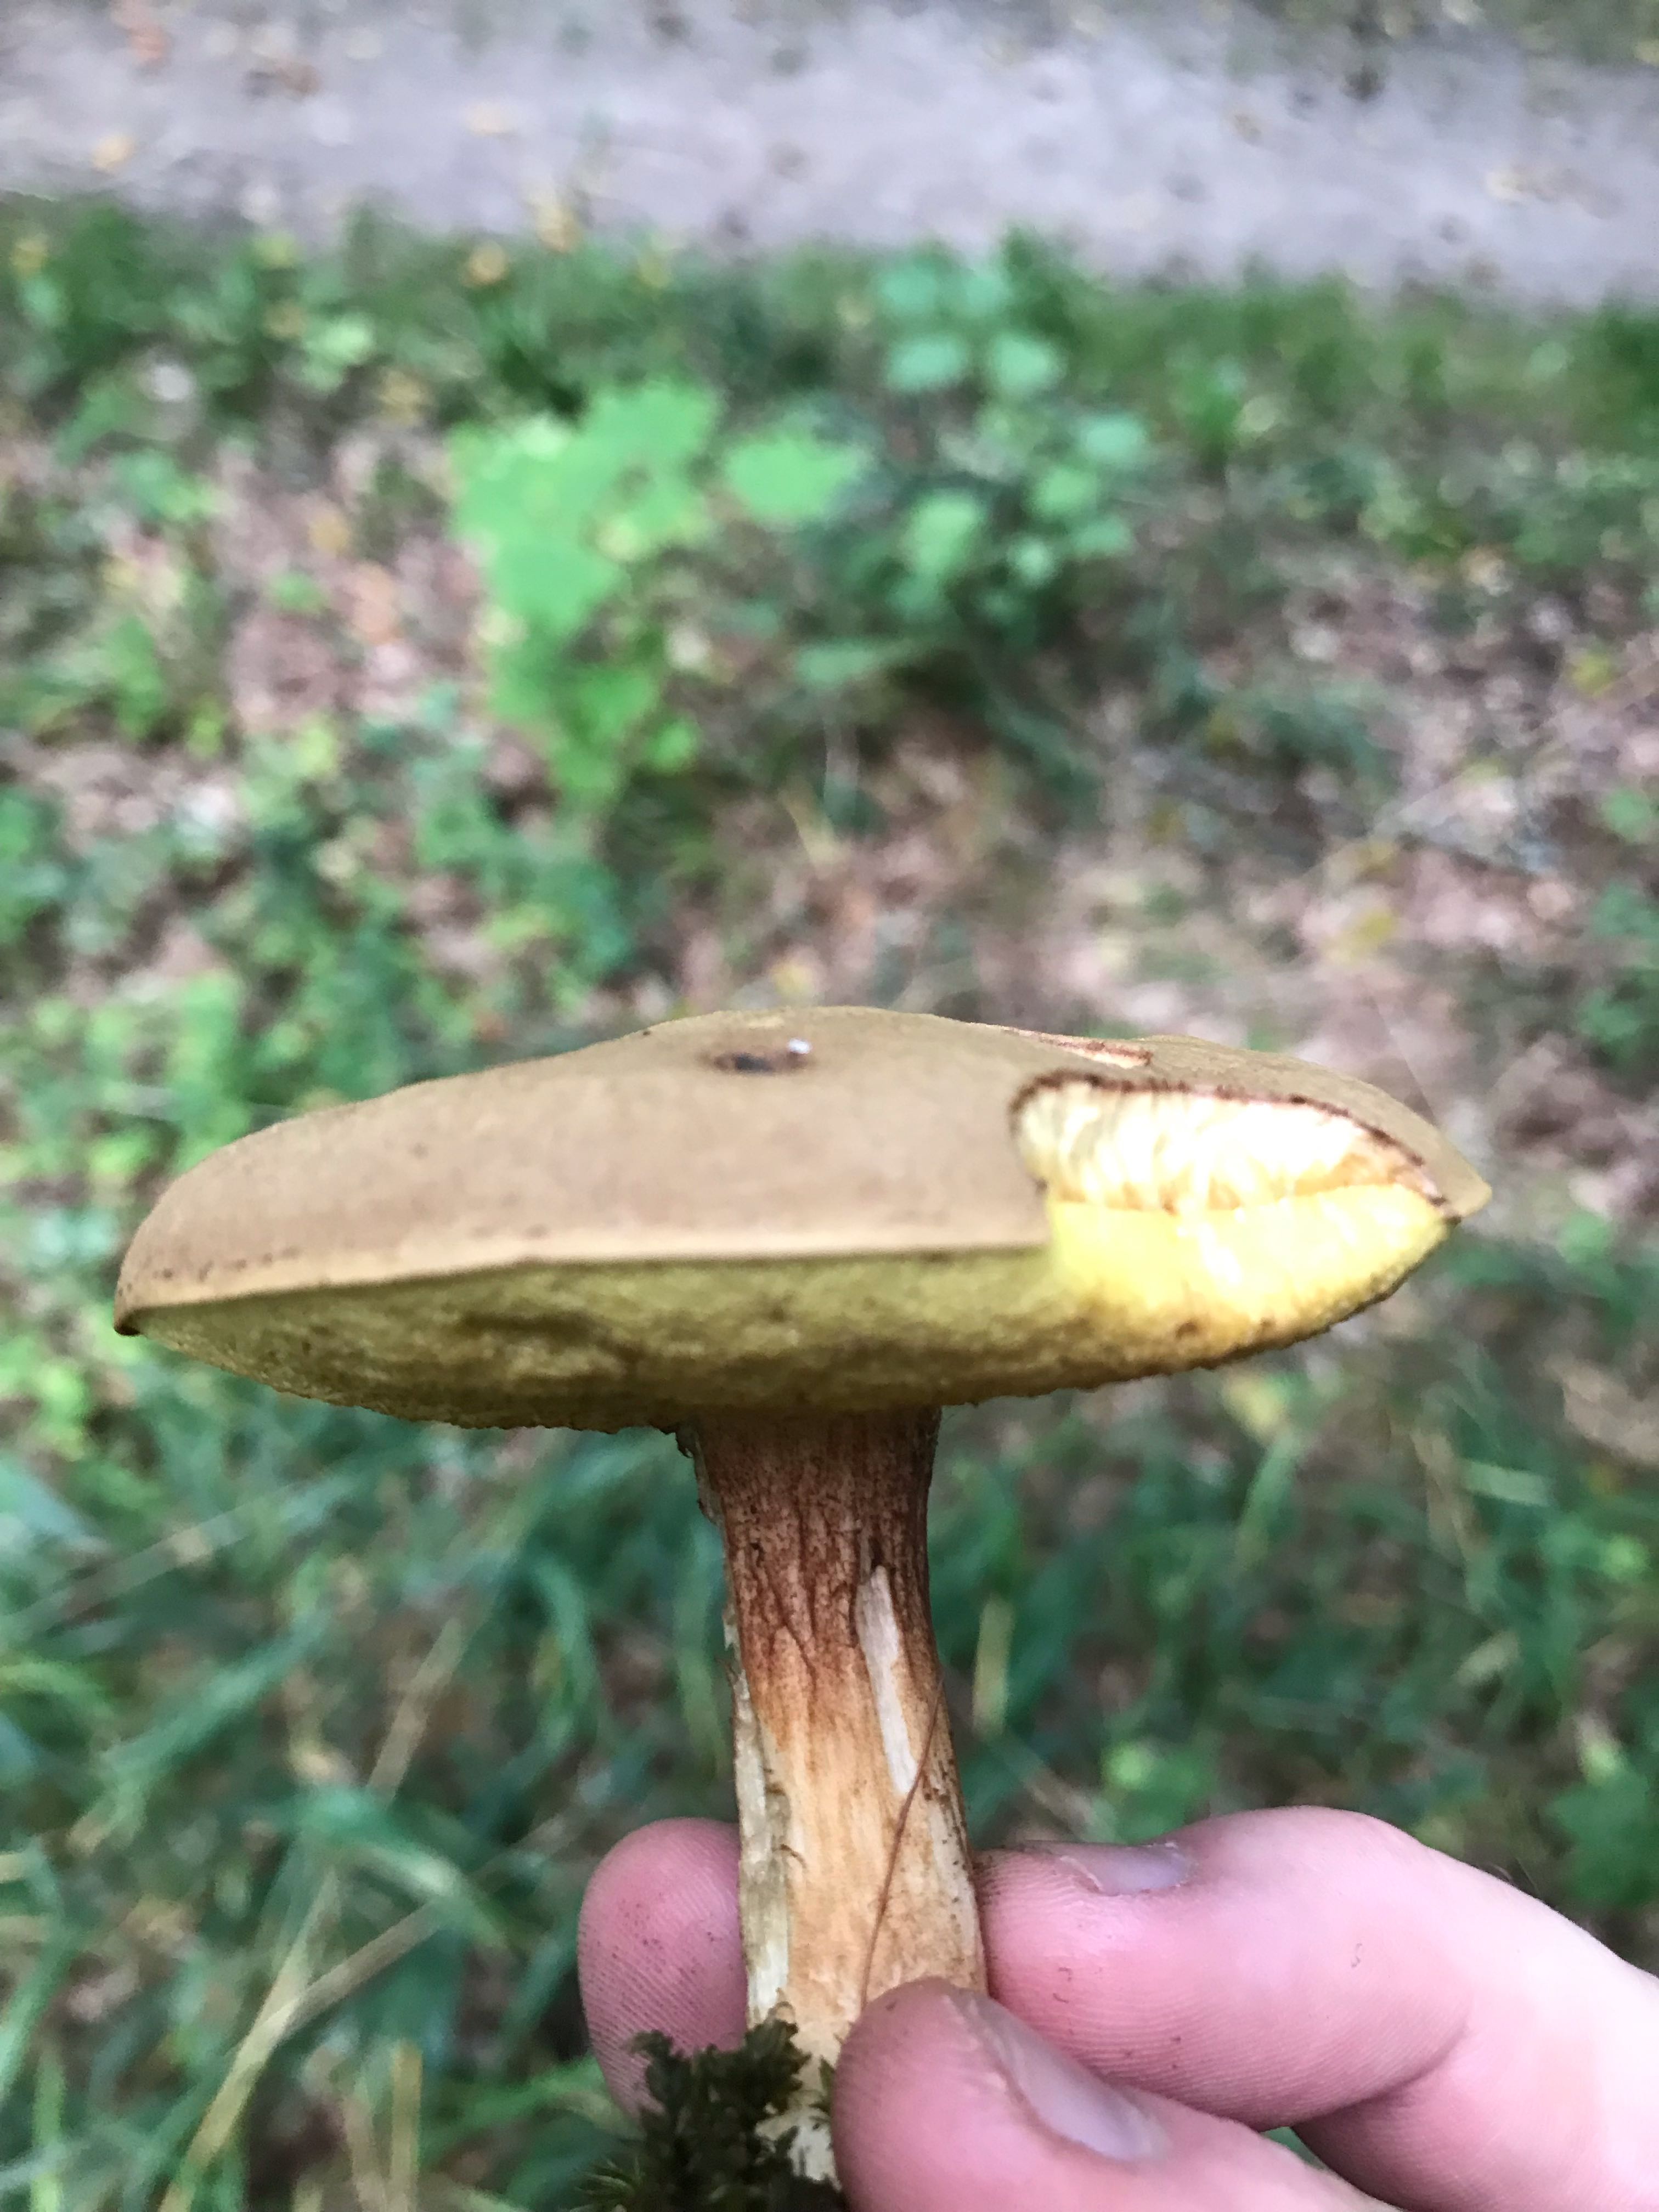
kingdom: Fungi
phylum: Basidiomycota
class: Agaricomycetes
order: Boletales
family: Boletaceae
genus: Xerocomus
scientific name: Xerocomus
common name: filtrørhat
